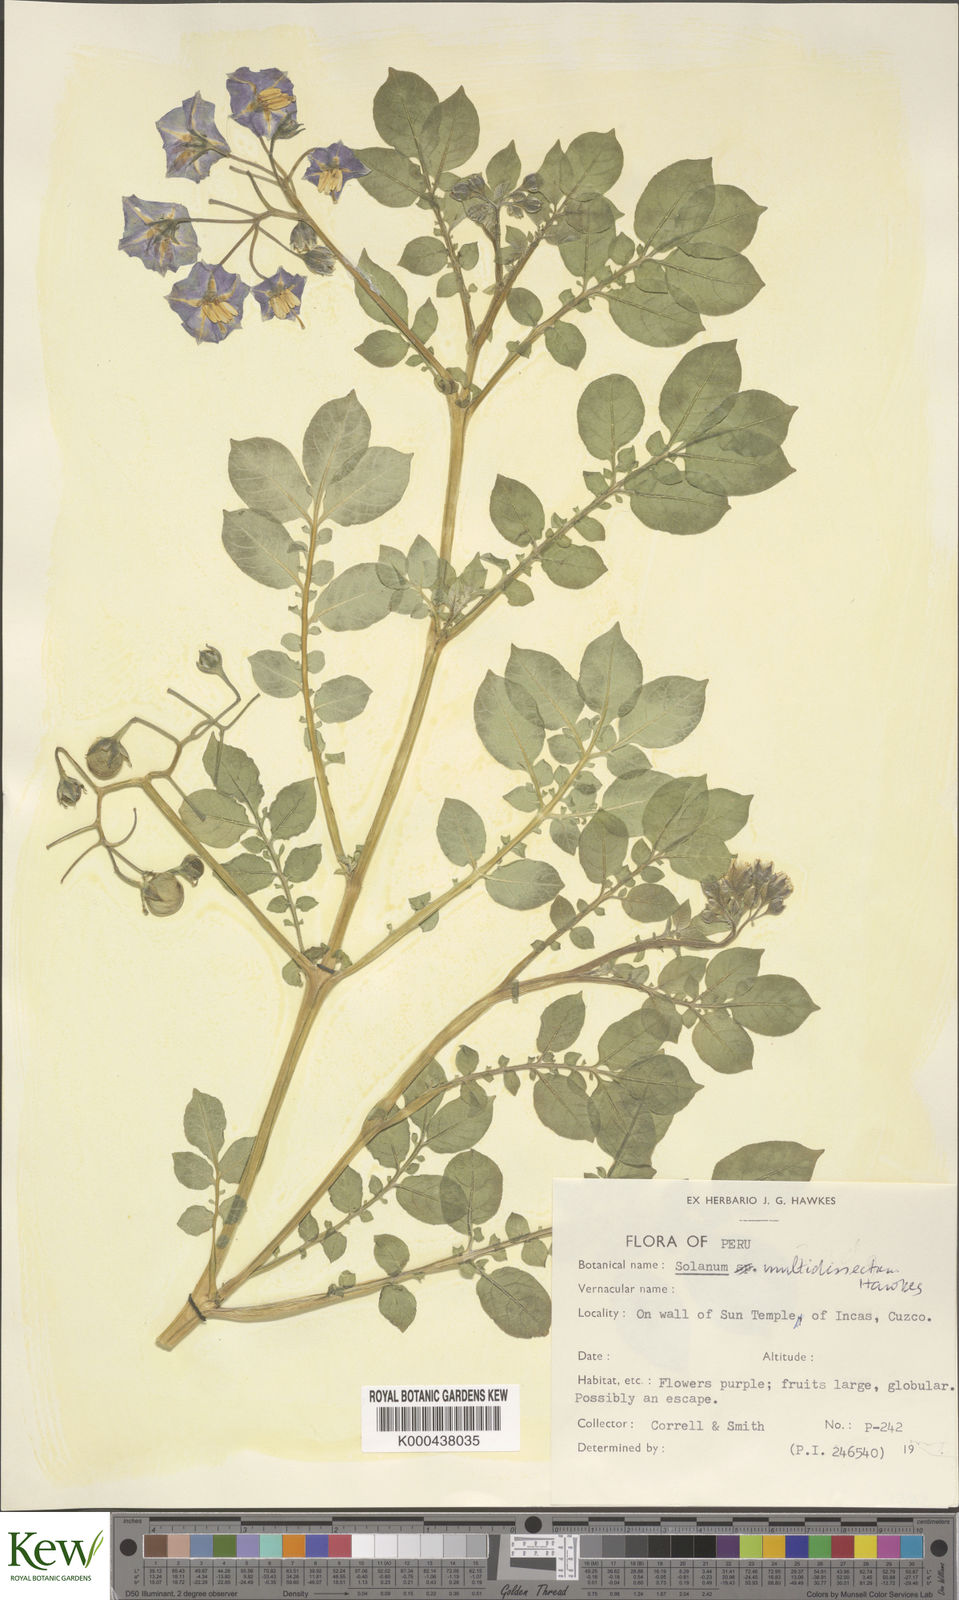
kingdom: Plantae
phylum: Tracheophyta
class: Magnoliopsida
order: Solanales
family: Solanaceae
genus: Solanum
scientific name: Solanum candolleanum
